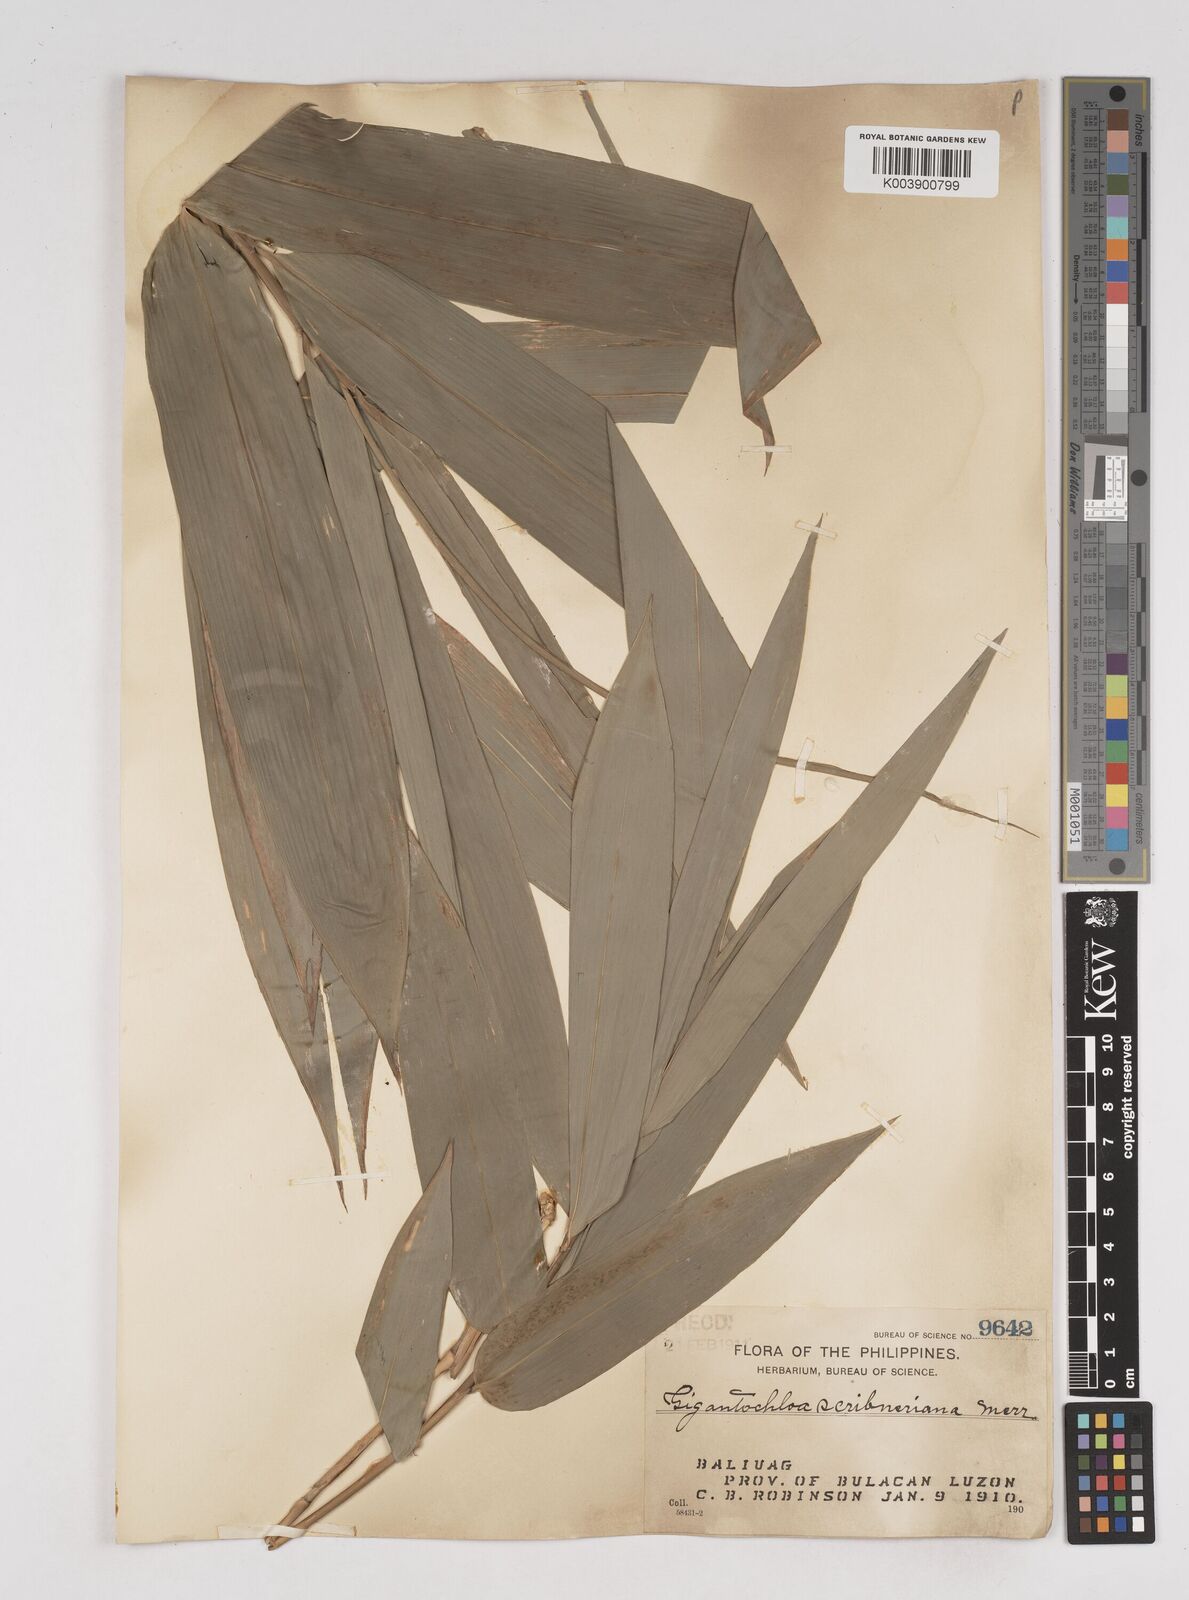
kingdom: Plantae
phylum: Tracheophyta
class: Liliopsida
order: Poales
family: Poaceae
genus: Gigantochloa
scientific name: Gigantochloa levis
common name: Smooth-shoot gigantochloa
